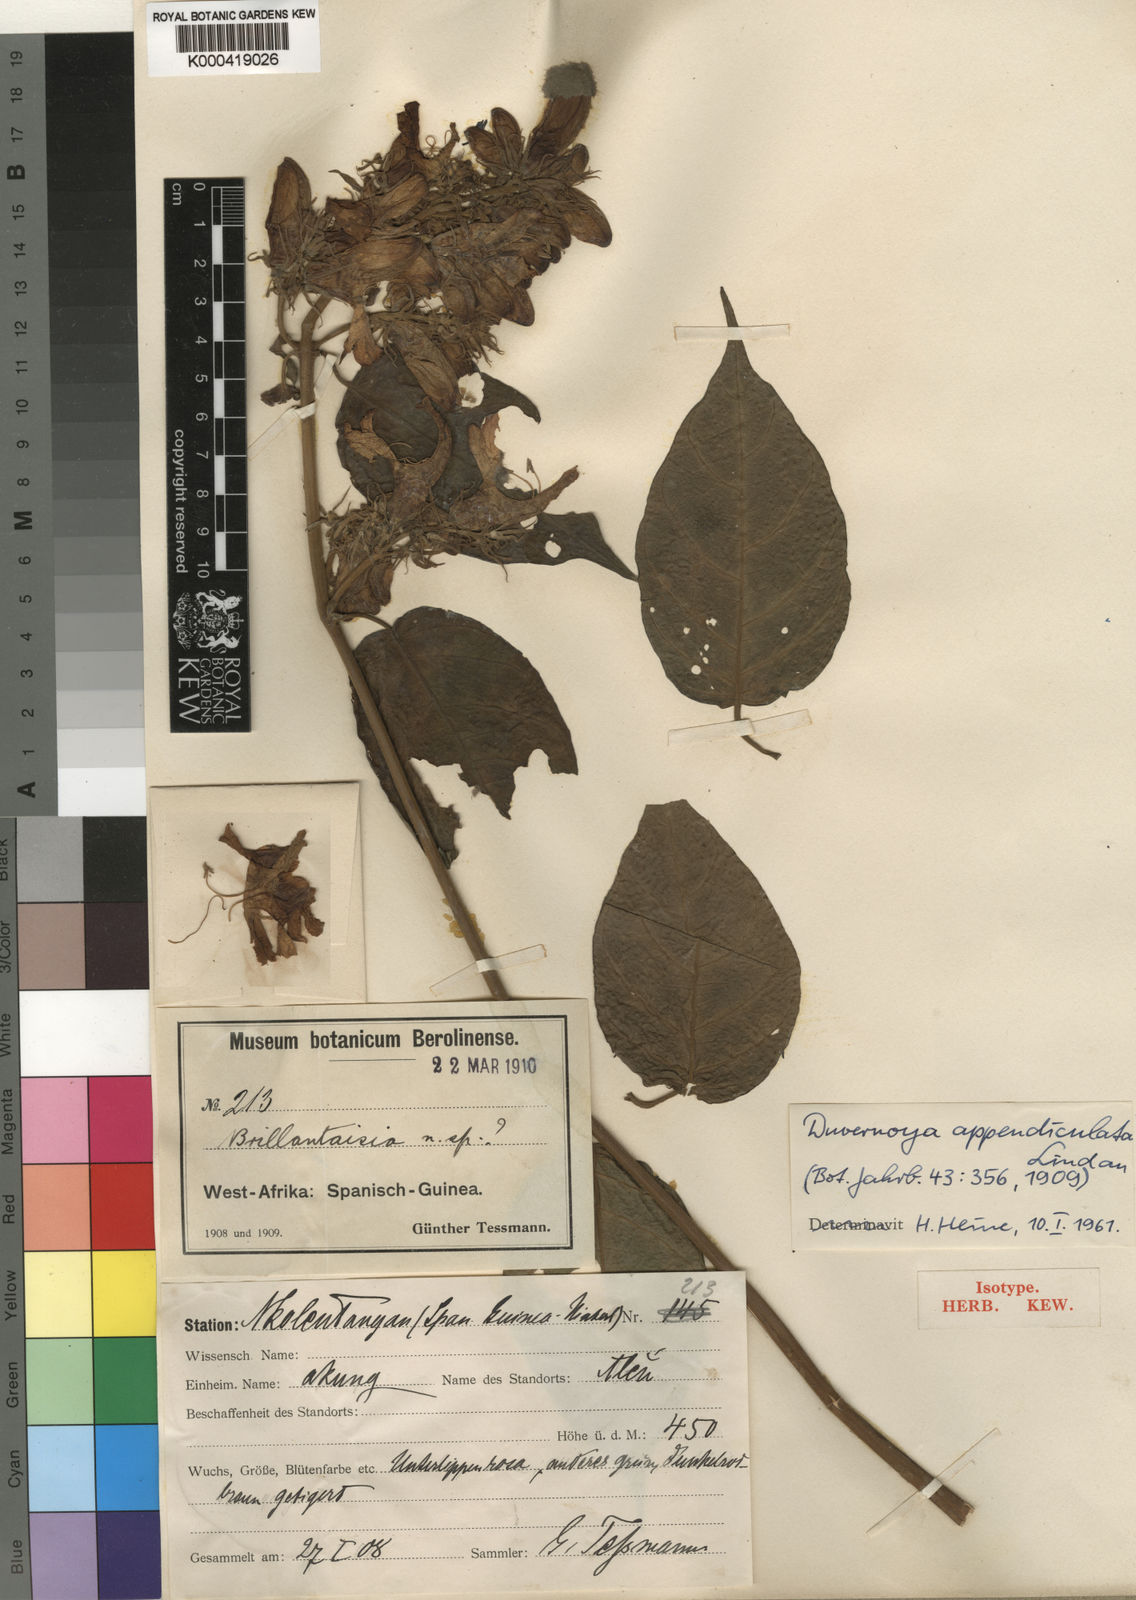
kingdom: Plantae
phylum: Tracheophyta
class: Magnoliopsida
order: Lamiales
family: Acanthaceae
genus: Justicia
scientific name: Justicia claessensii
